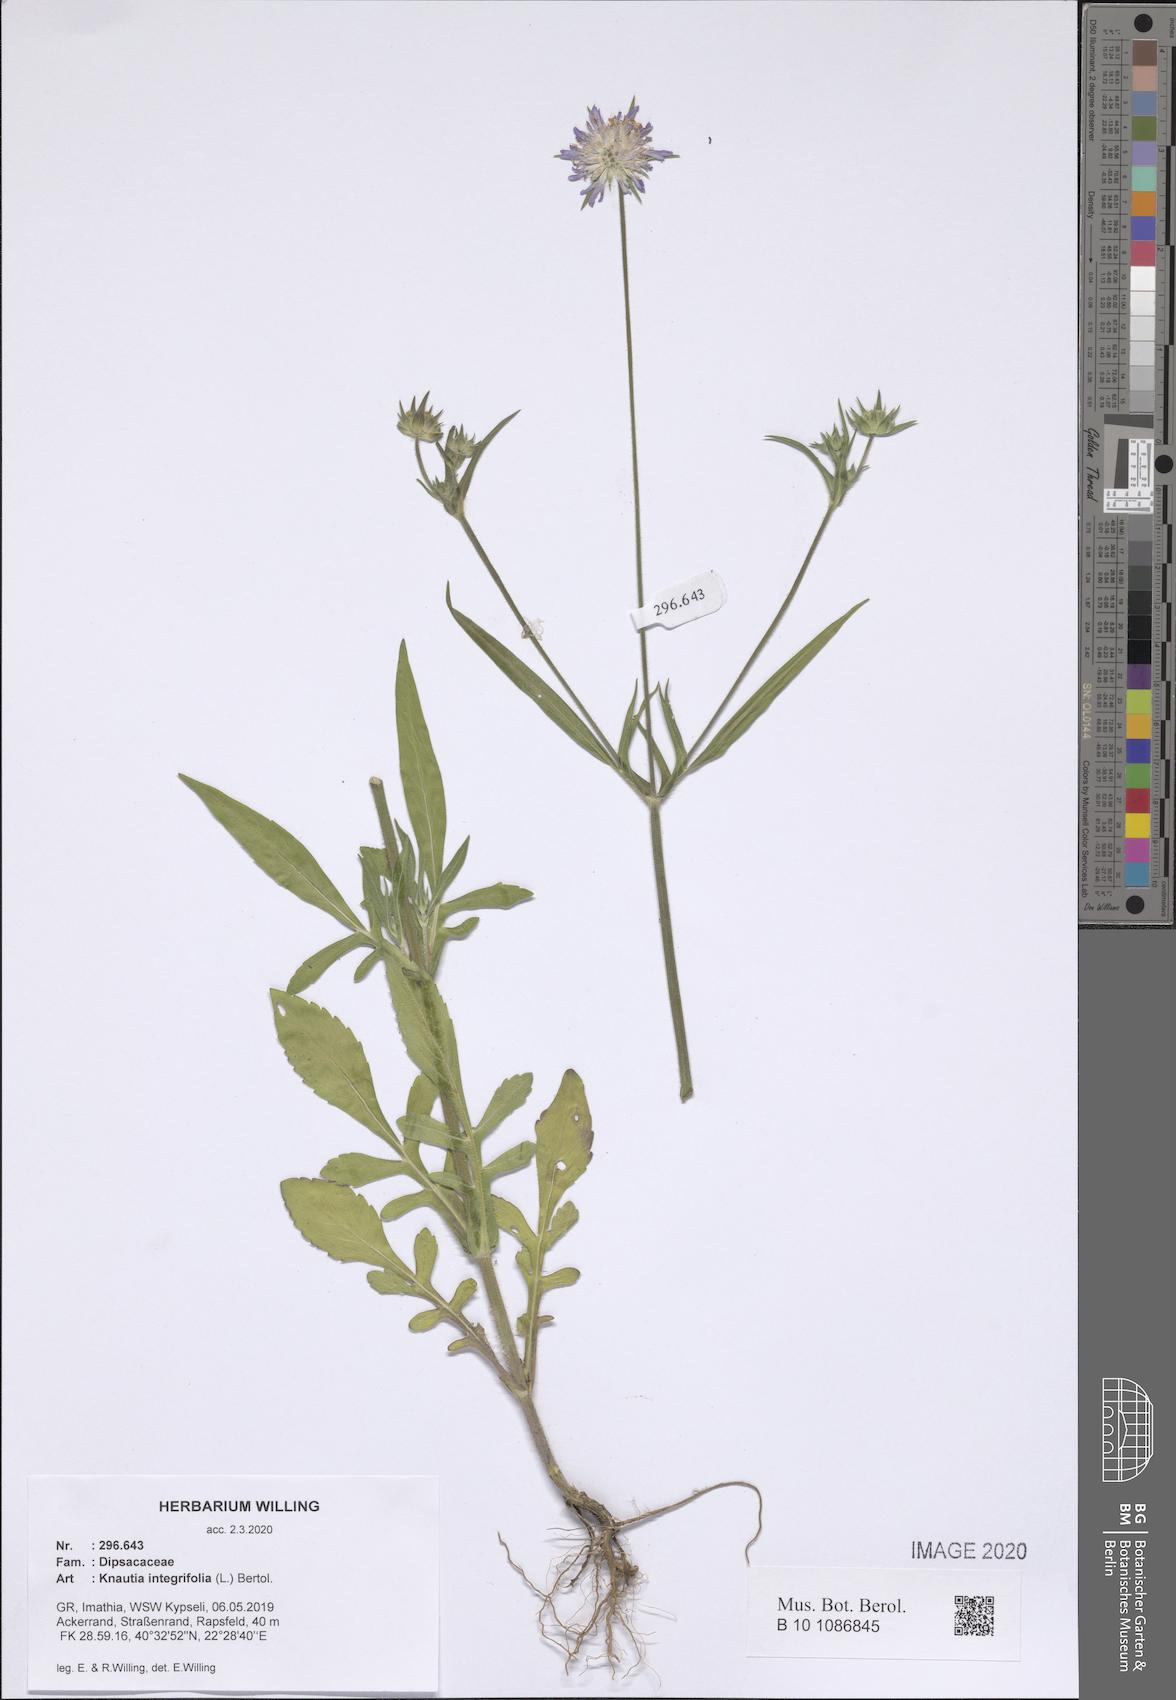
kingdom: Plantae
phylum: Tracheophyta
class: Magnoliopsida
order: Dipsacales
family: Caprifoliaceae
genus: Knautia
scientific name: Knautia integrifolia
